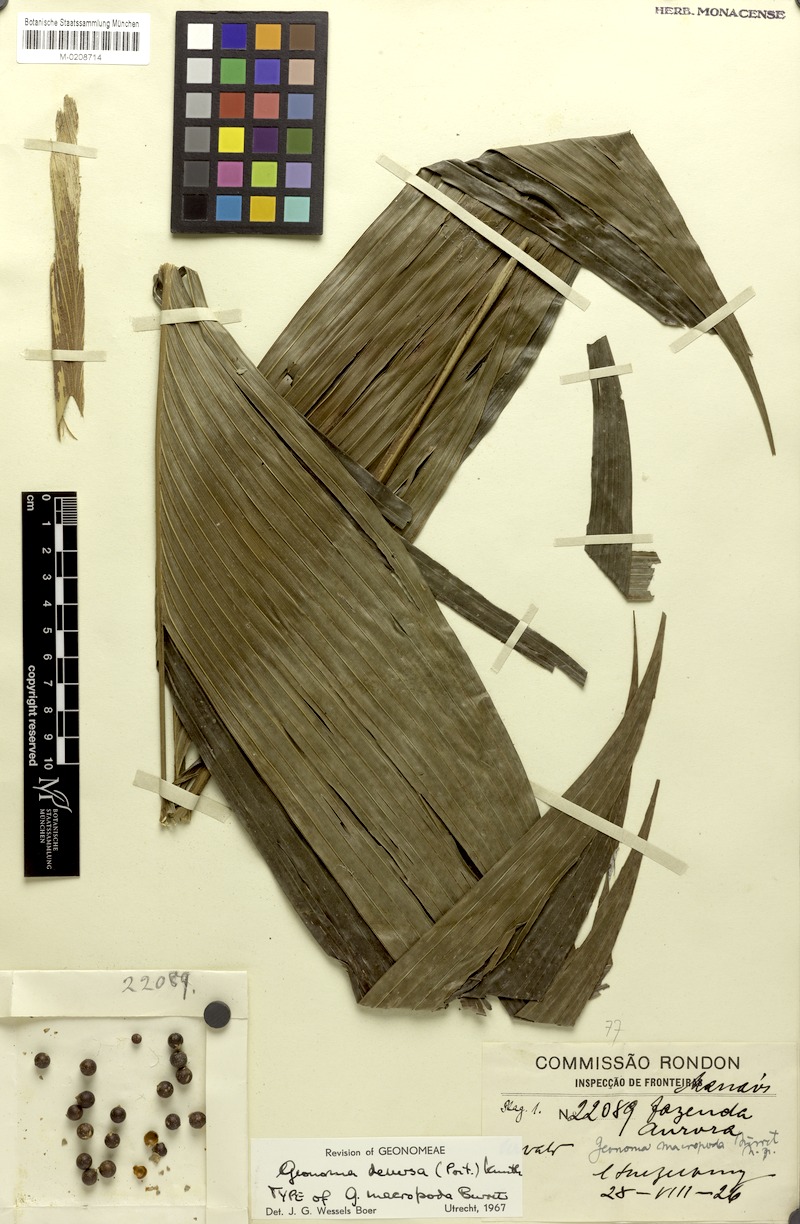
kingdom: Plantae
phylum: Tracheophyta
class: Liliopsida
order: Arecales
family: Arecaceae
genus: Geonoma
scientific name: Geonoma deversa
